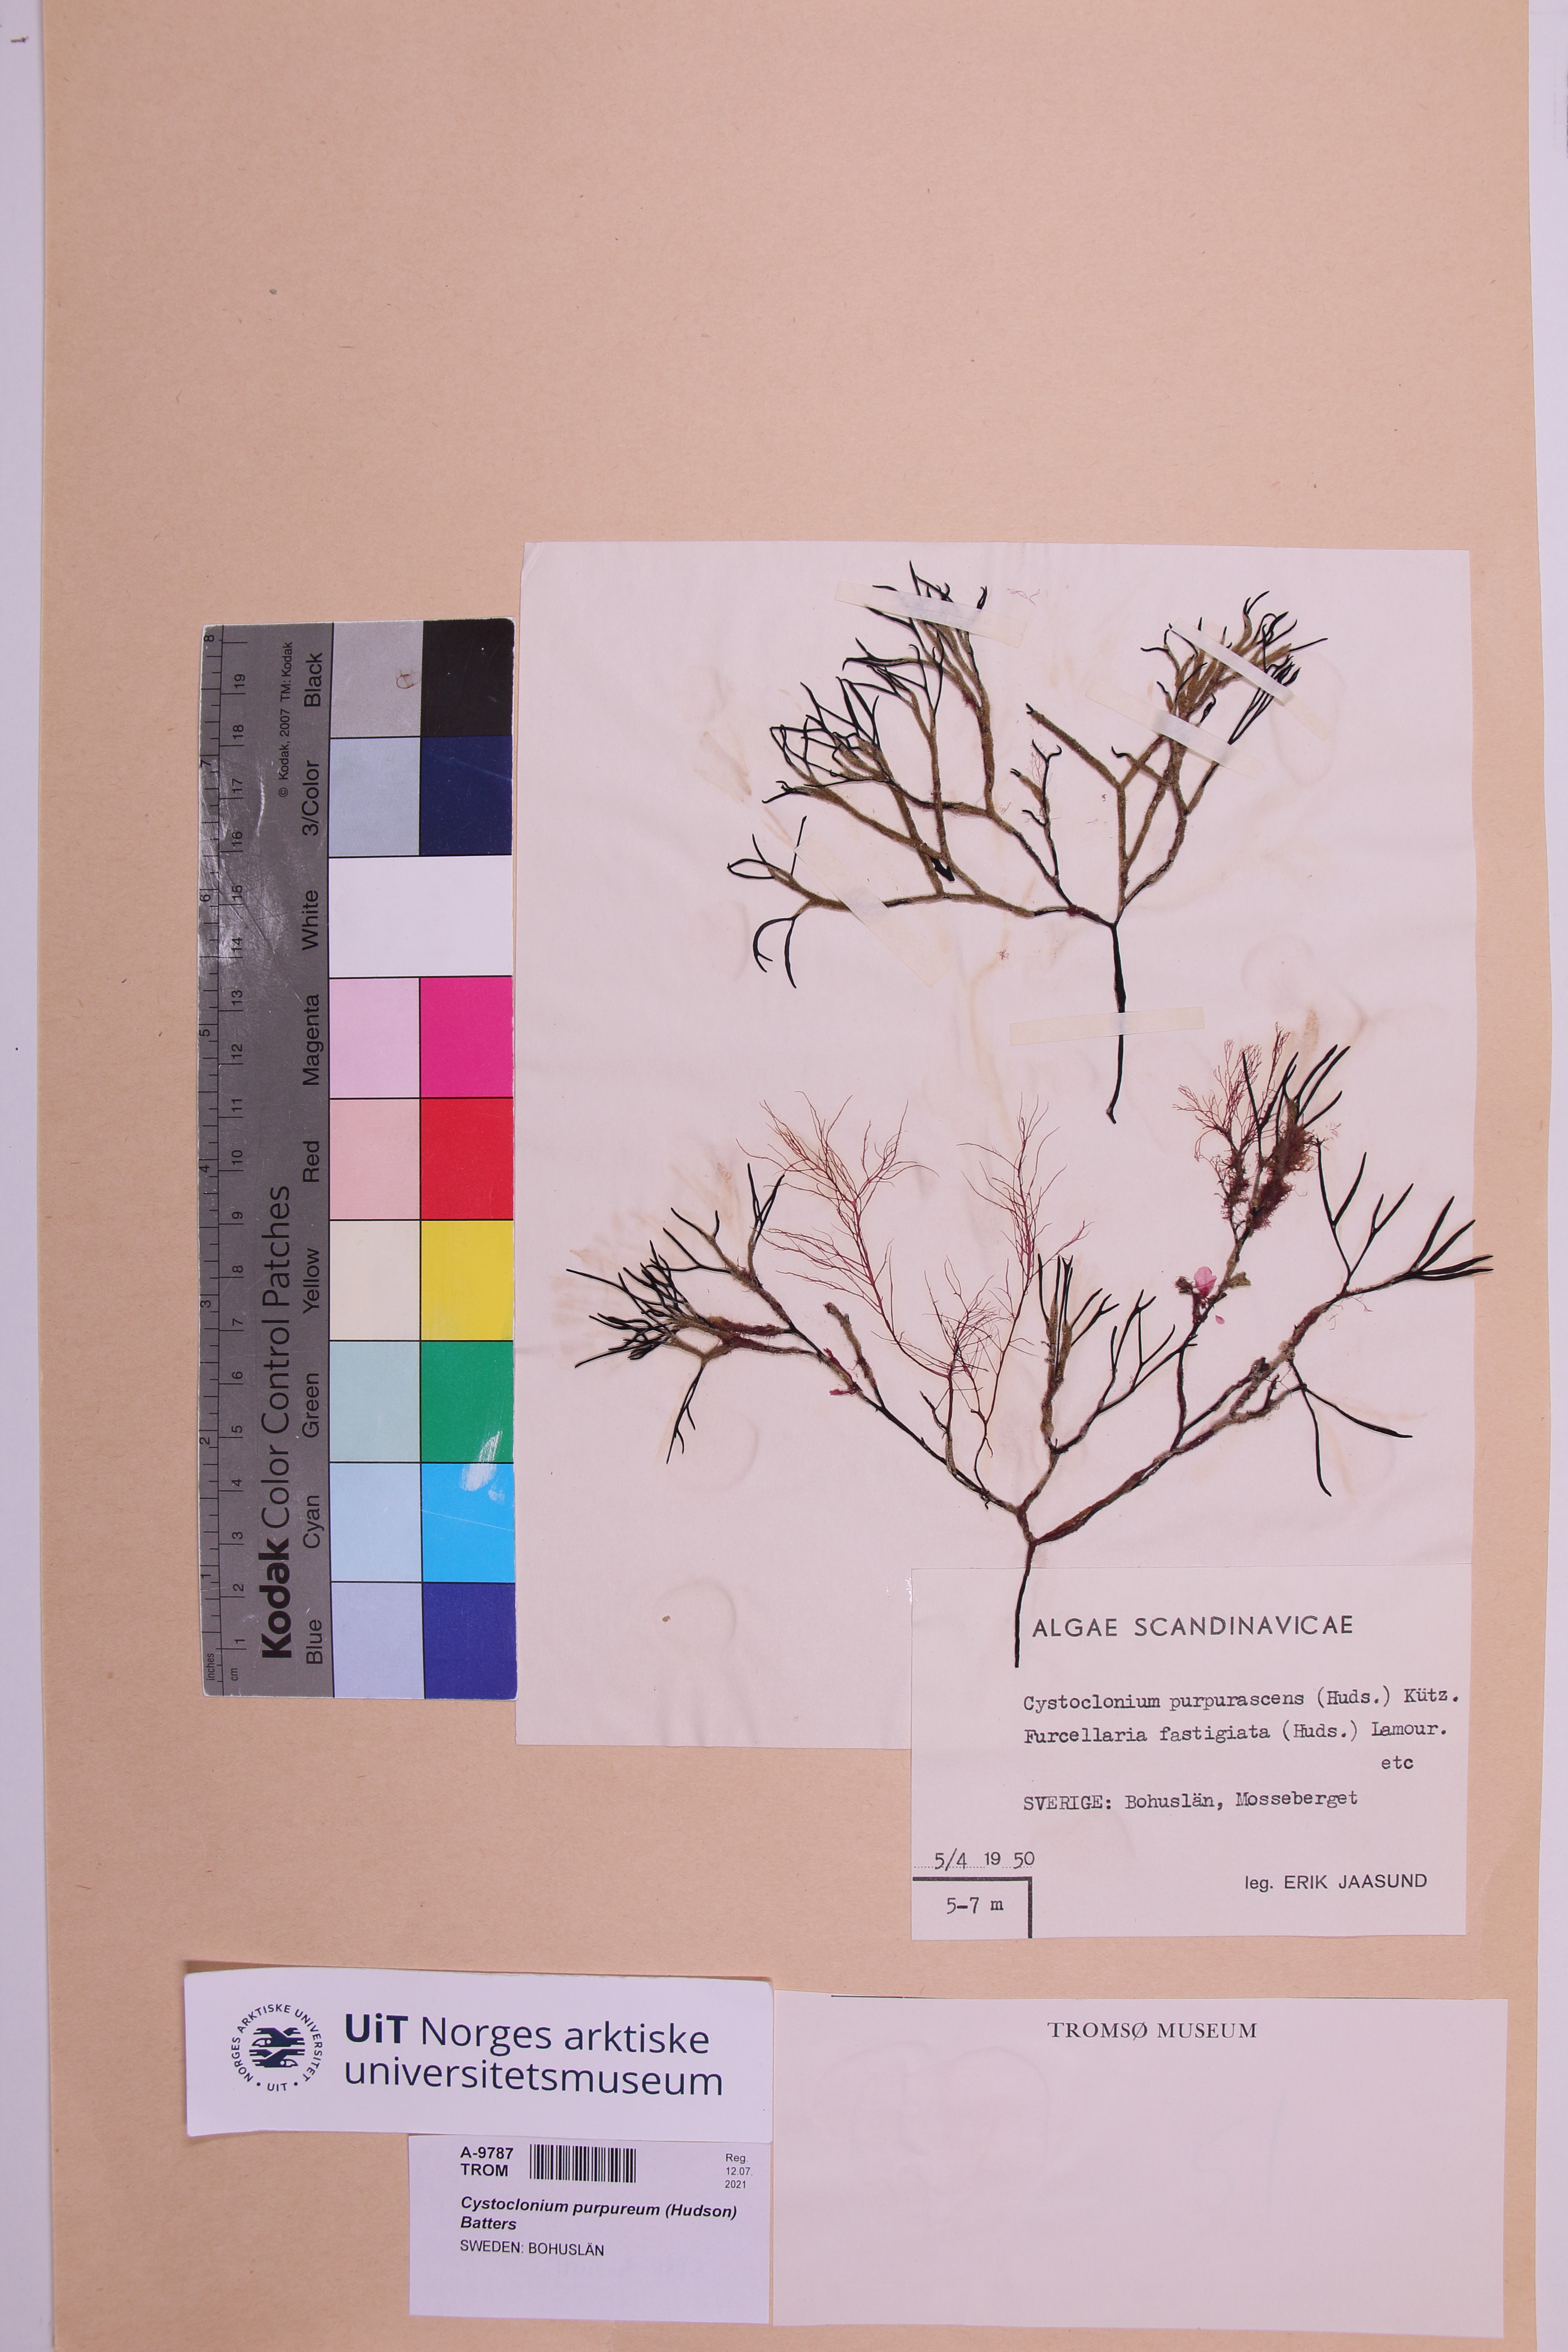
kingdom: Plantae
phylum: Rhodophyta
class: Florideophyceae
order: Gigartinales
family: Cystocloniaceae
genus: Cystoclonium
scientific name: Cystoclonium purpureum
